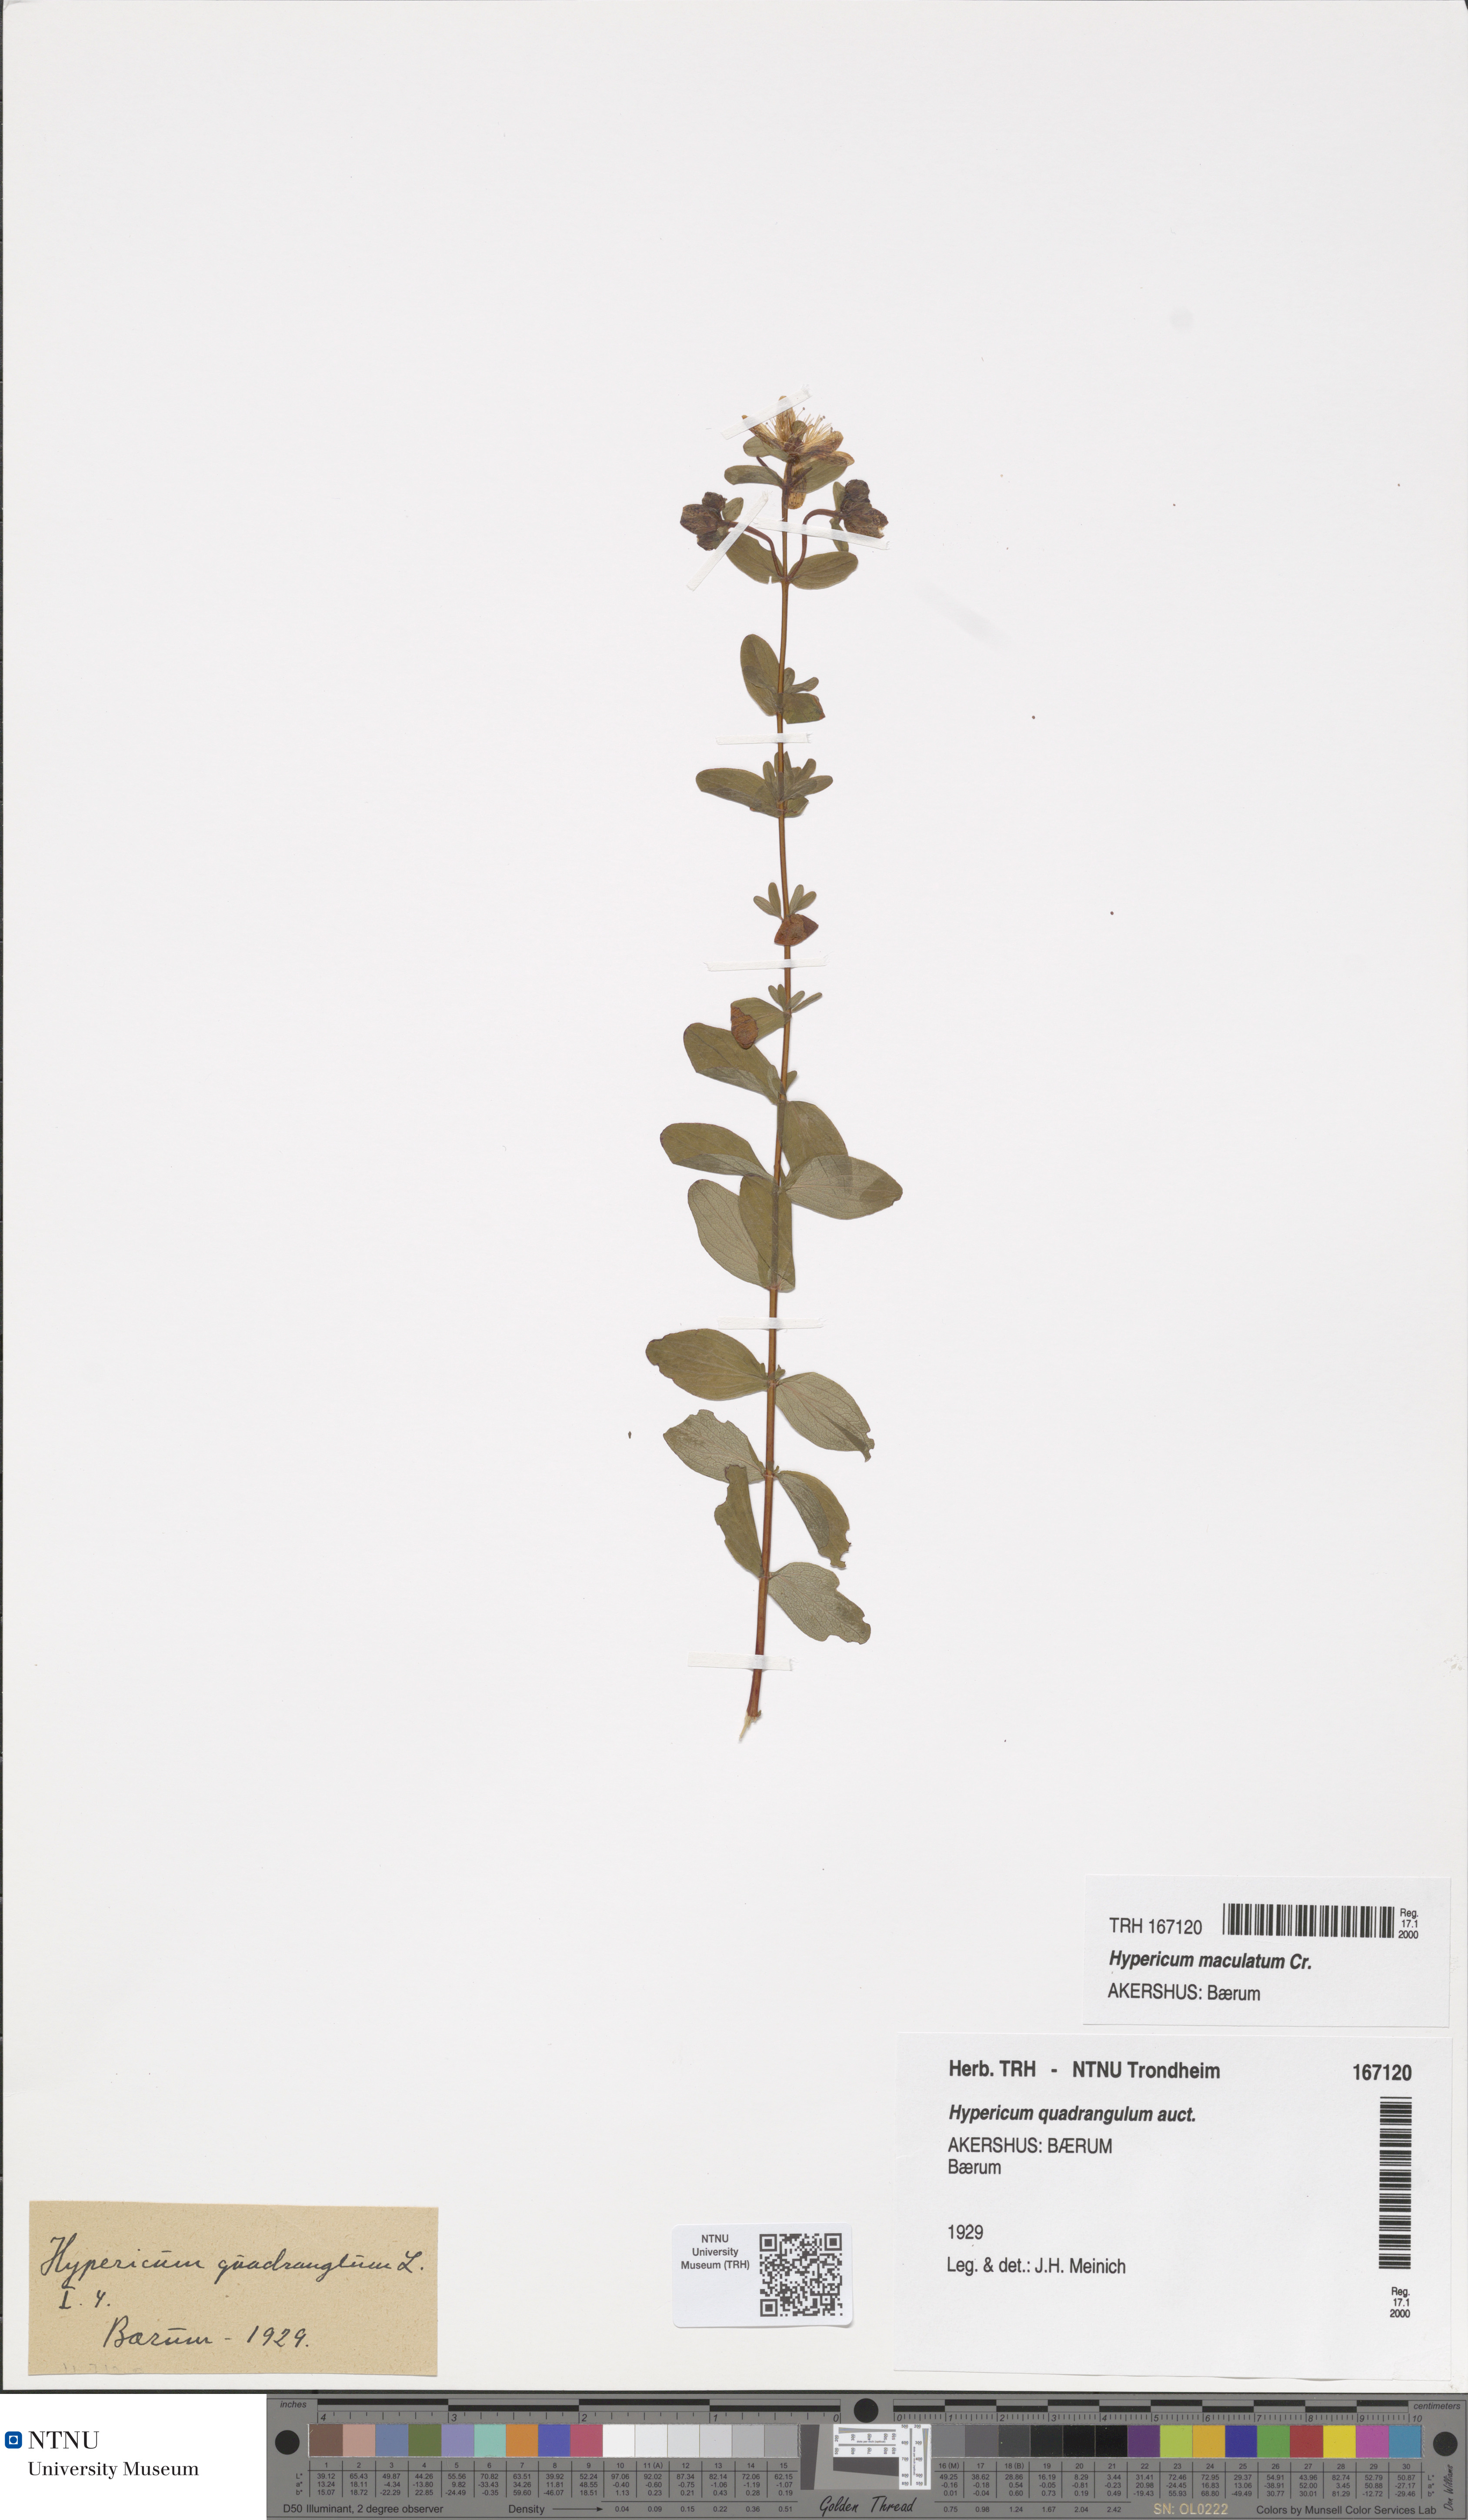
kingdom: Plantae
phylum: Tracheophyta
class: Magnoliopsida
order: Malpighiales
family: Hypericaceae
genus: Hypericum
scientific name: Hypericum maculatum
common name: Imperforate st. john's-wort
